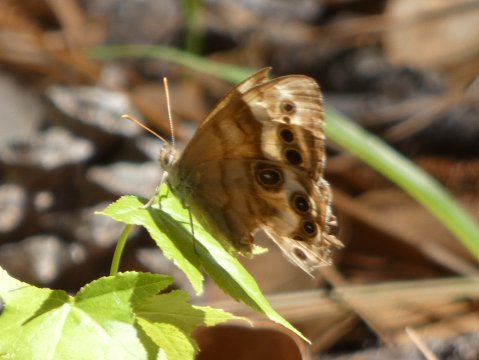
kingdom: Animalia
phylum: Arthropoda
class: Insecta
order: Lepidoptera
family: Nymphalidae
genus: Enodia
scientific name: Enodia portlandia
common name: Southern Pearly Eye
